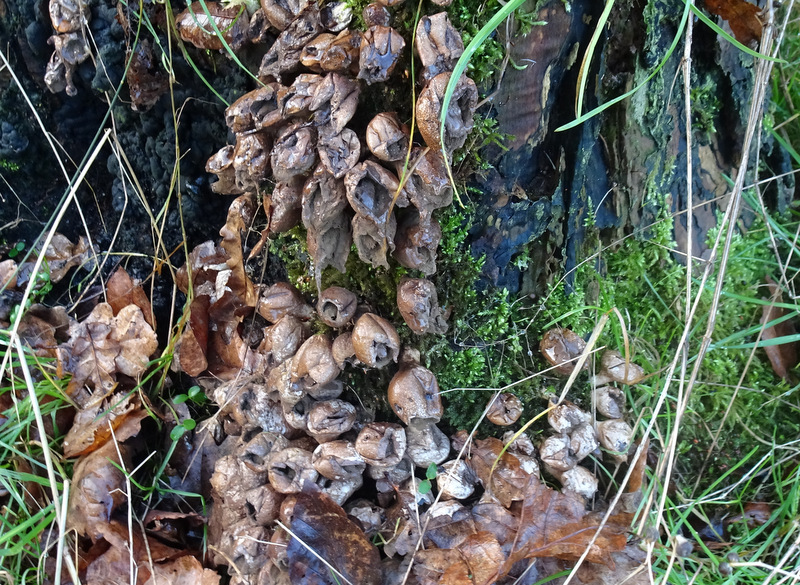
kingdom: Fungi
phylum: Basidiomycota
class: Agaricomycetes
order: Agaricales
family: Lycoperdaceae
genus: Apioperdon
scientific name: Apioperdon pyriforme
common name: pære-støvbold
